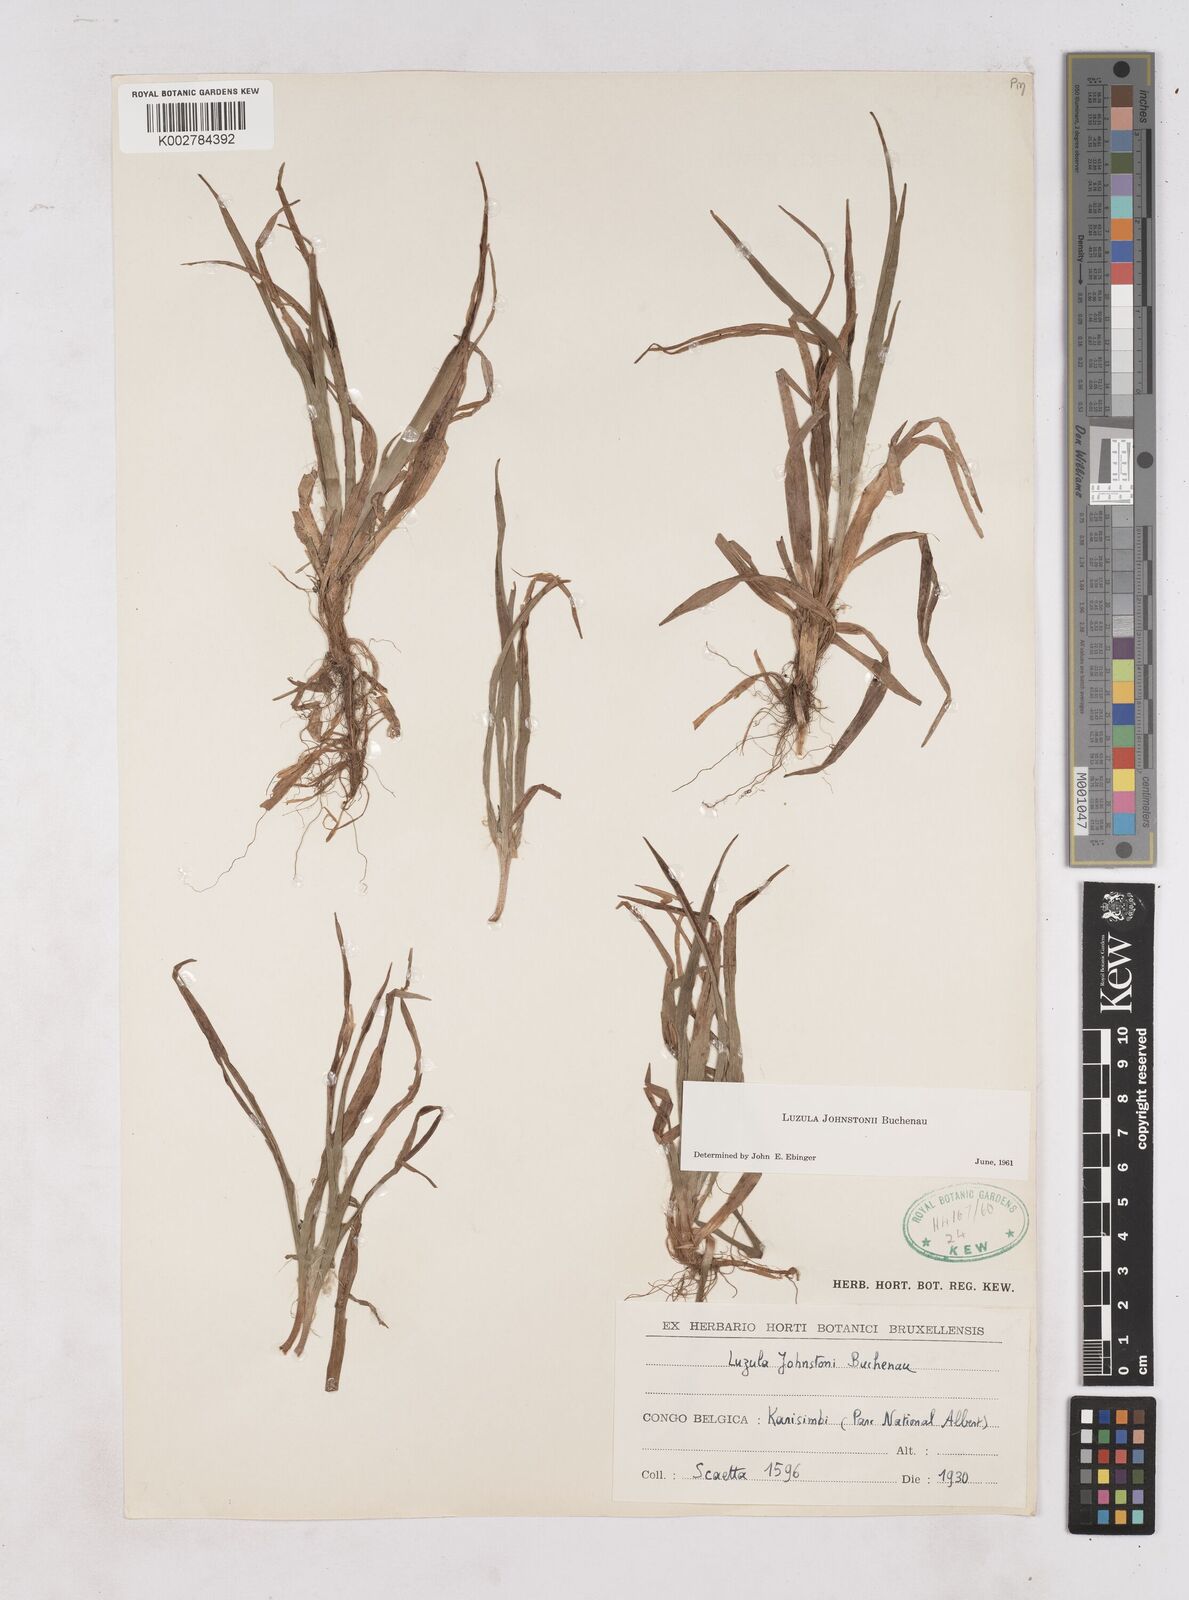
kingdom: Plantae
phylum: Tracheophyta
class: Liliopsida
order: Poales
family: Juncaceae
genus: Luzula
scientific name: Luzula johnstonii
